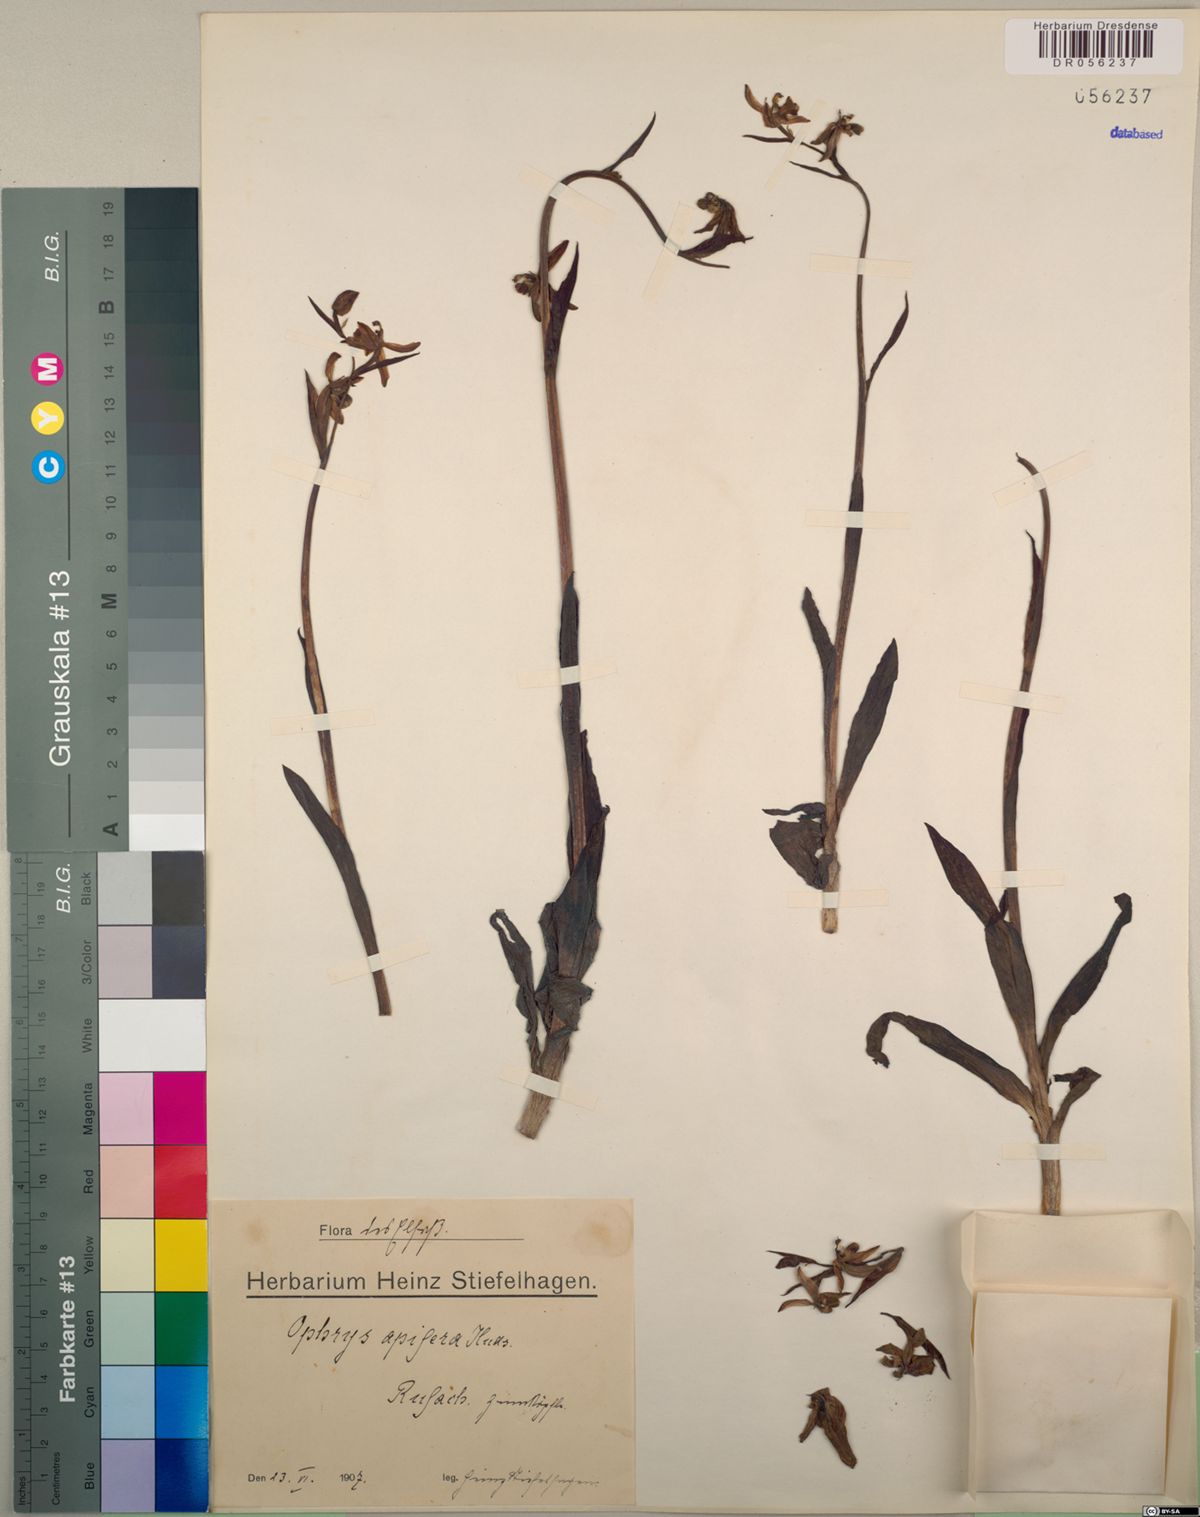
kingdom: Plantae
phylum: Tracheophyta
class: Liliopsida
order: Asparagales
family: Orchidaceae
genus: Ophrys
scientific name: Ophrys apifera
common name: Bee orchid
